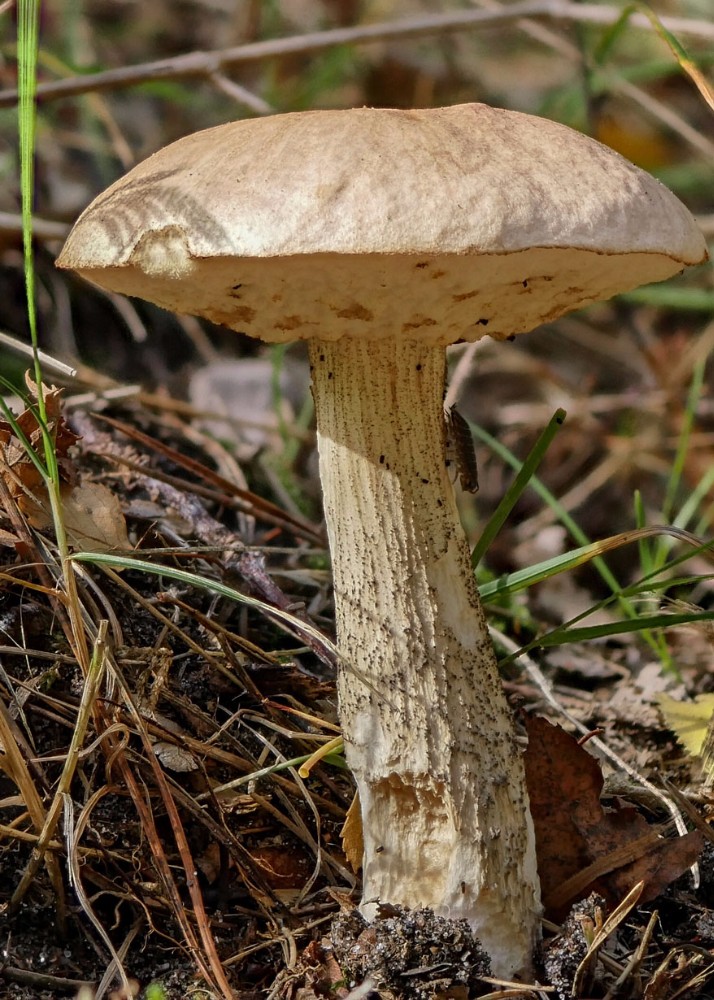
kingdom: Fungi
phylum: Basidiomycota
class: Agaricomycetes
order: Boletales
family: Boletaceae
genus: Leccinum
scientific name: Leccinum cyaneobasileucum
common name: almindelig skælrørhat
